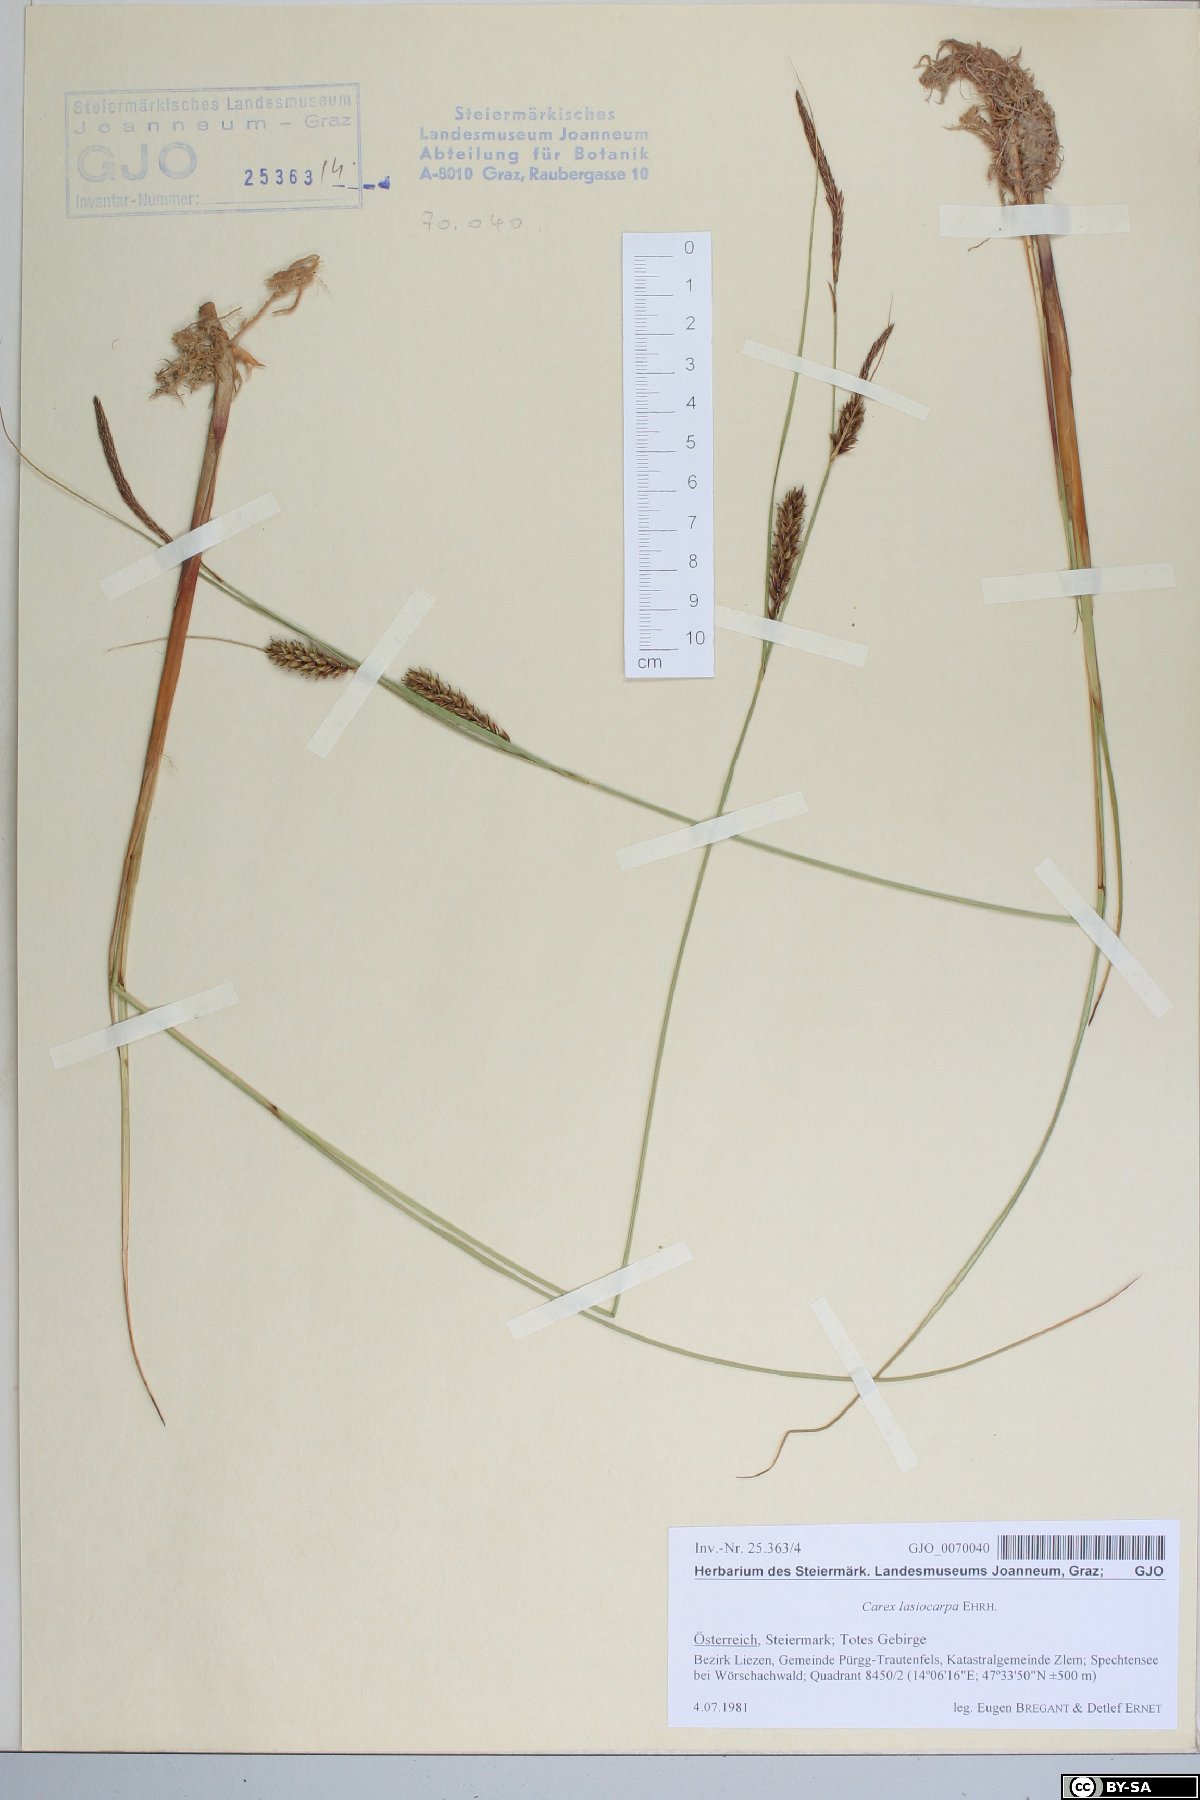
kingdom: Plantae
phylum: Tracheophyta
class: Liliopsida
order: Poales
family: Cyperaceae
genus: Carex
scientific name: Carex lasiocarpa
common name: Slender sedge
